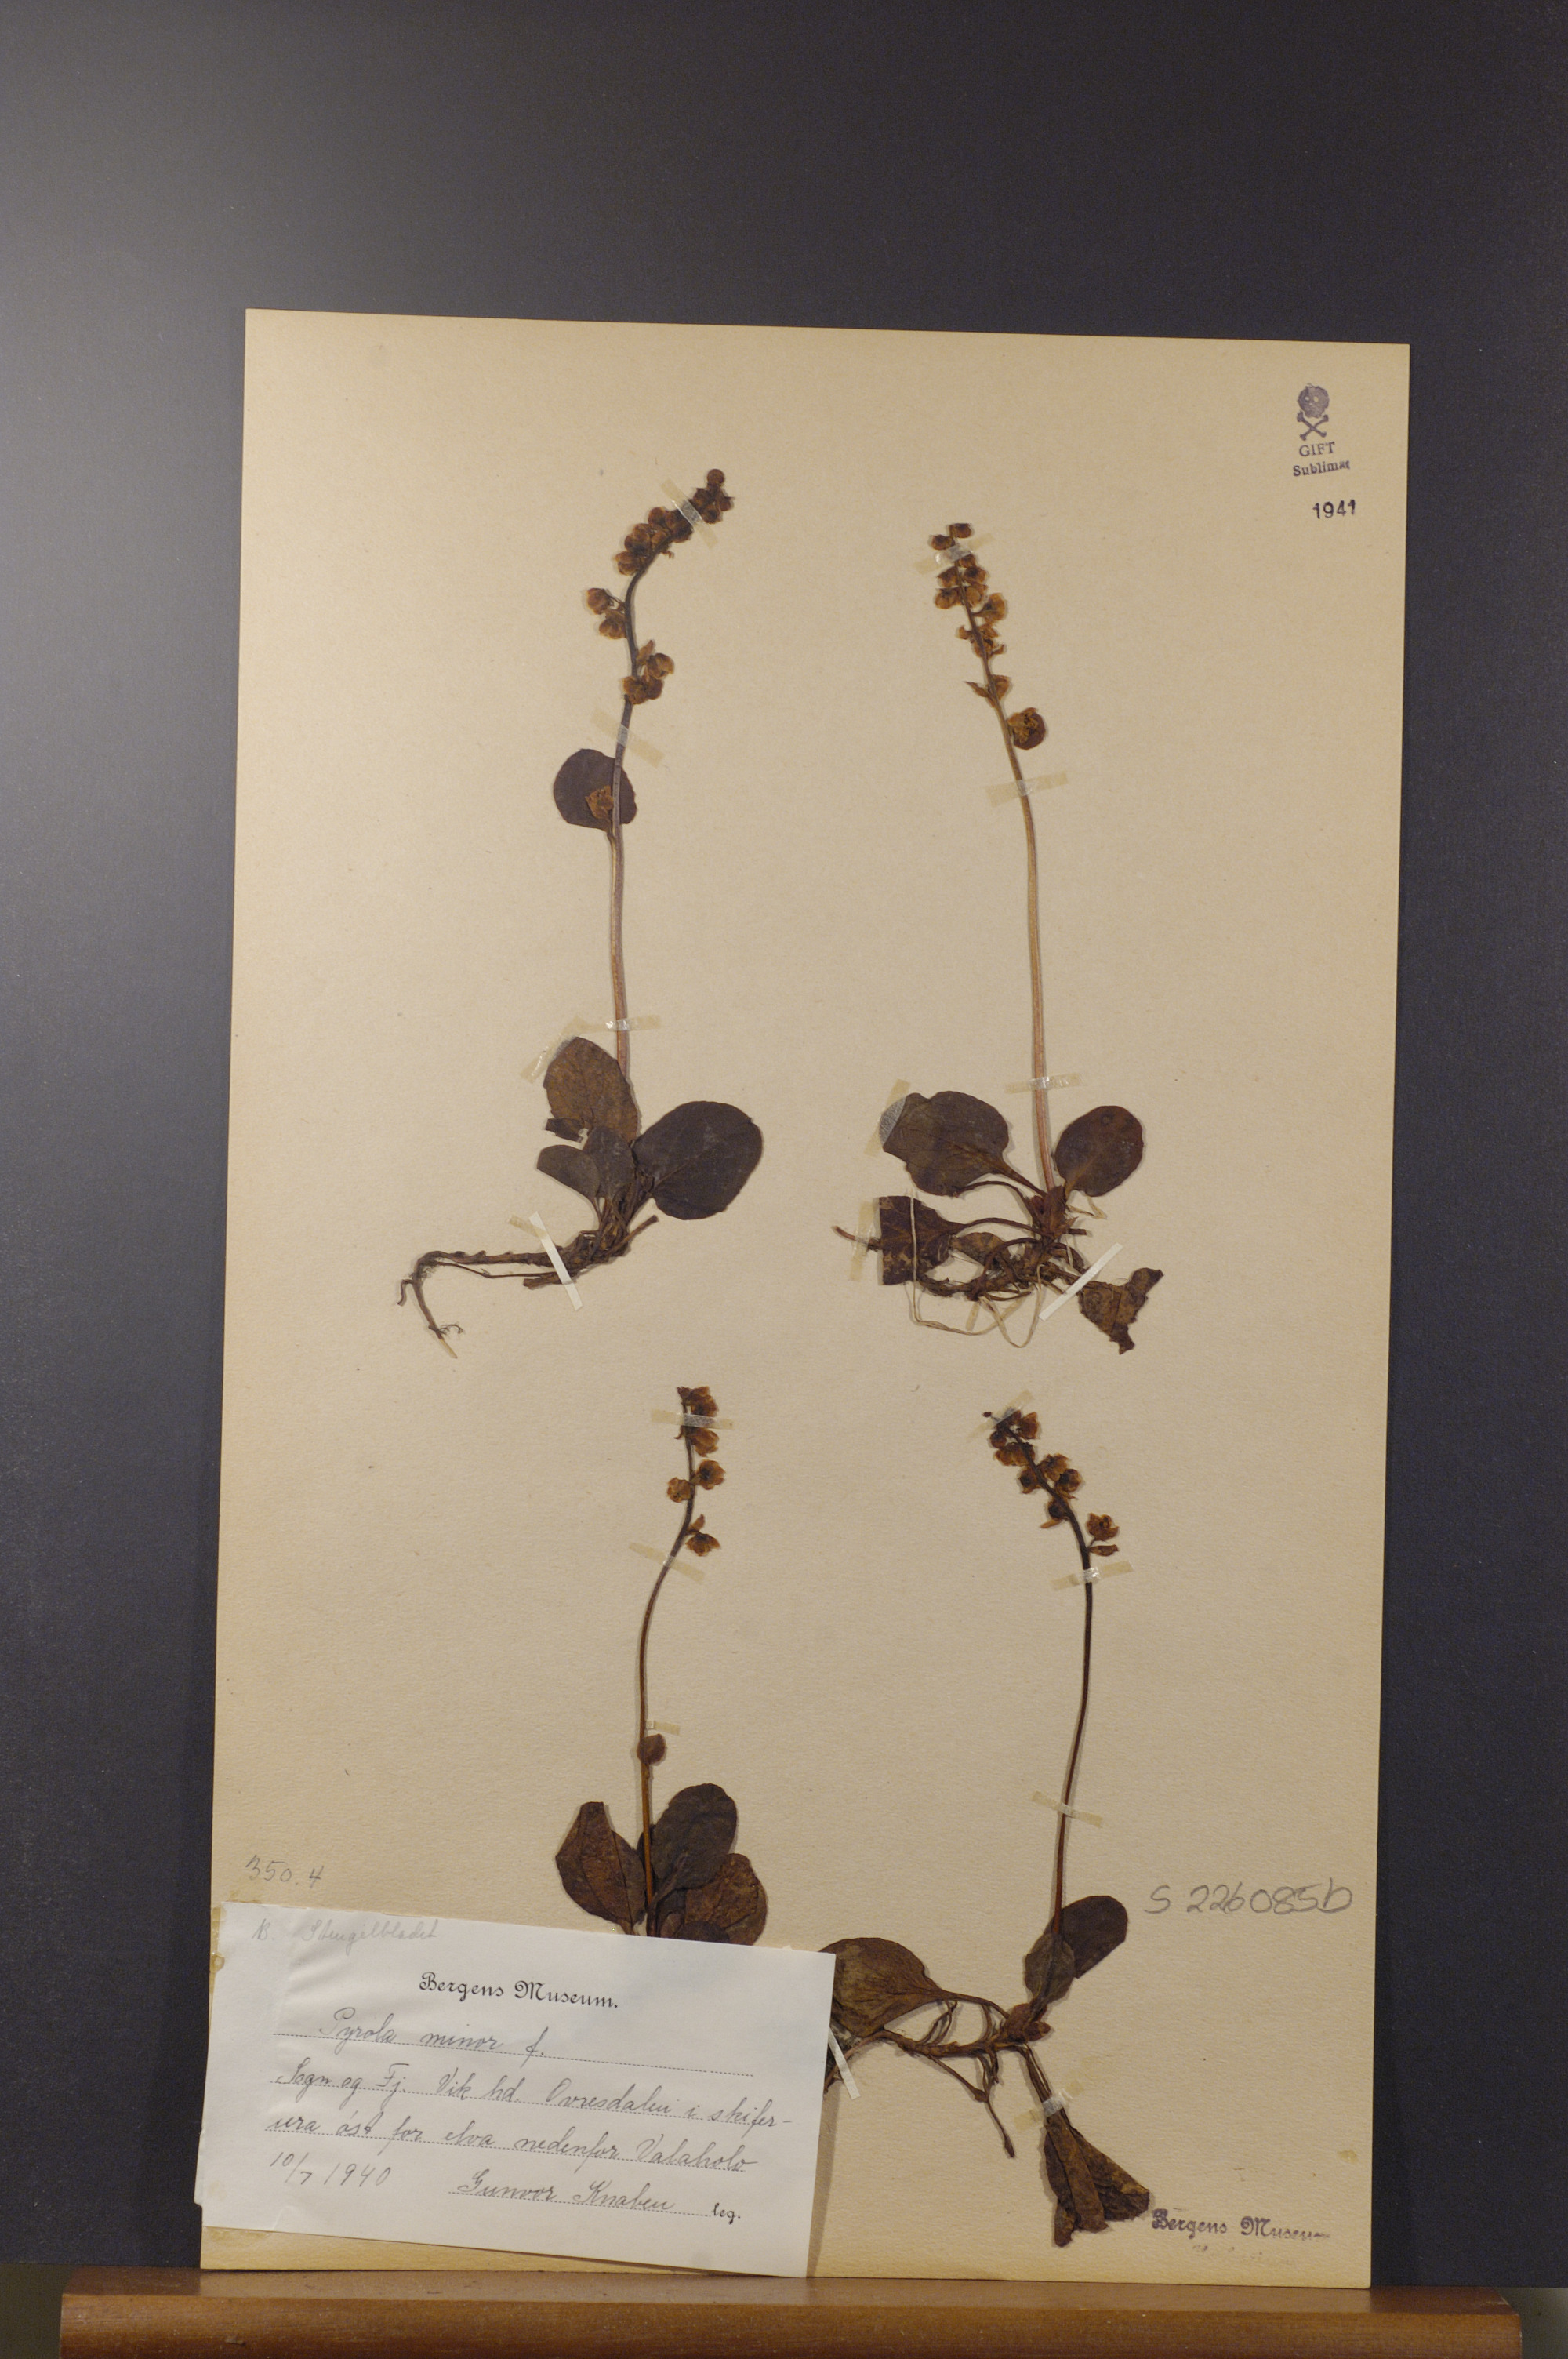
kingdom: Plantae
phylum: Tracheophyta
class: Magnoliopsida
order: Ericales
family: Ericaceae
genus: Pyrola
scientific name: Pyrola minor
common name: Common wintergreen
